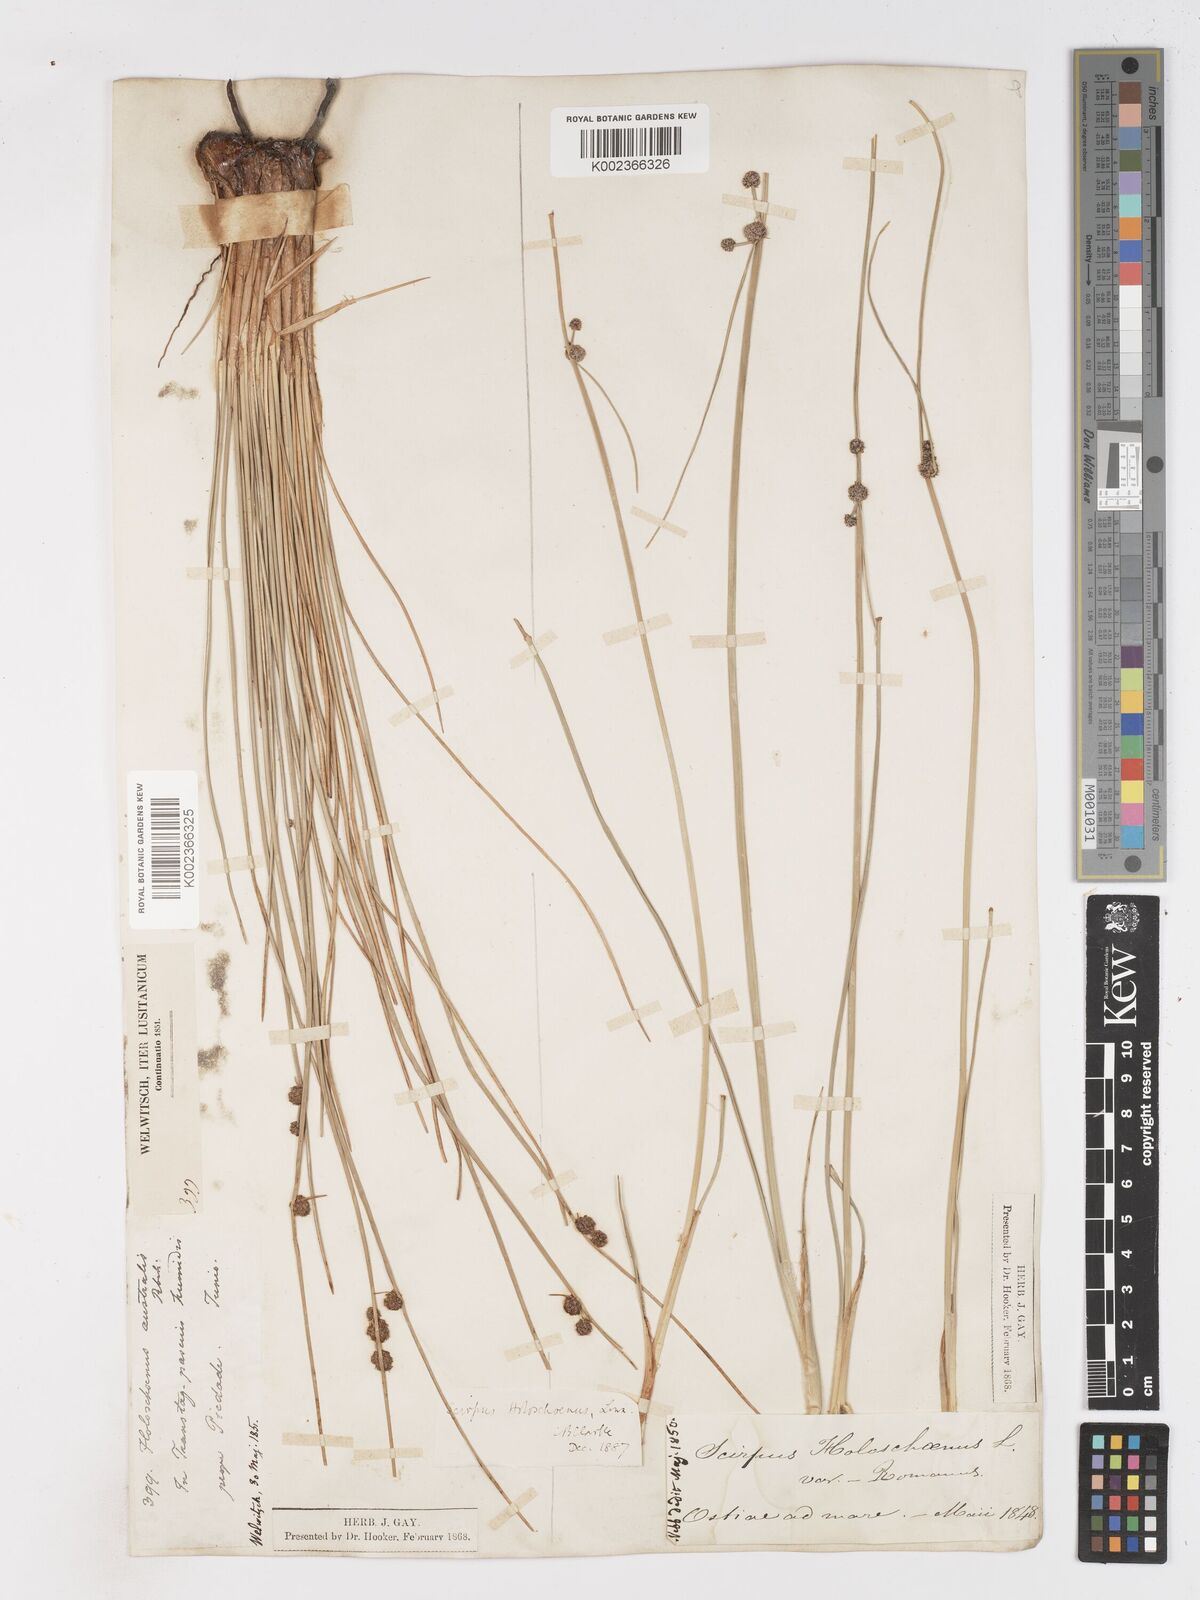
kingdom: Plantae
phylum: Tracheophyta
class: Liliopsida
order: Poales
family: Cyperaceae
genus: Scirpoides
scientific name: Scirpoides holoschoenus
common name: Round-headed club-rush
